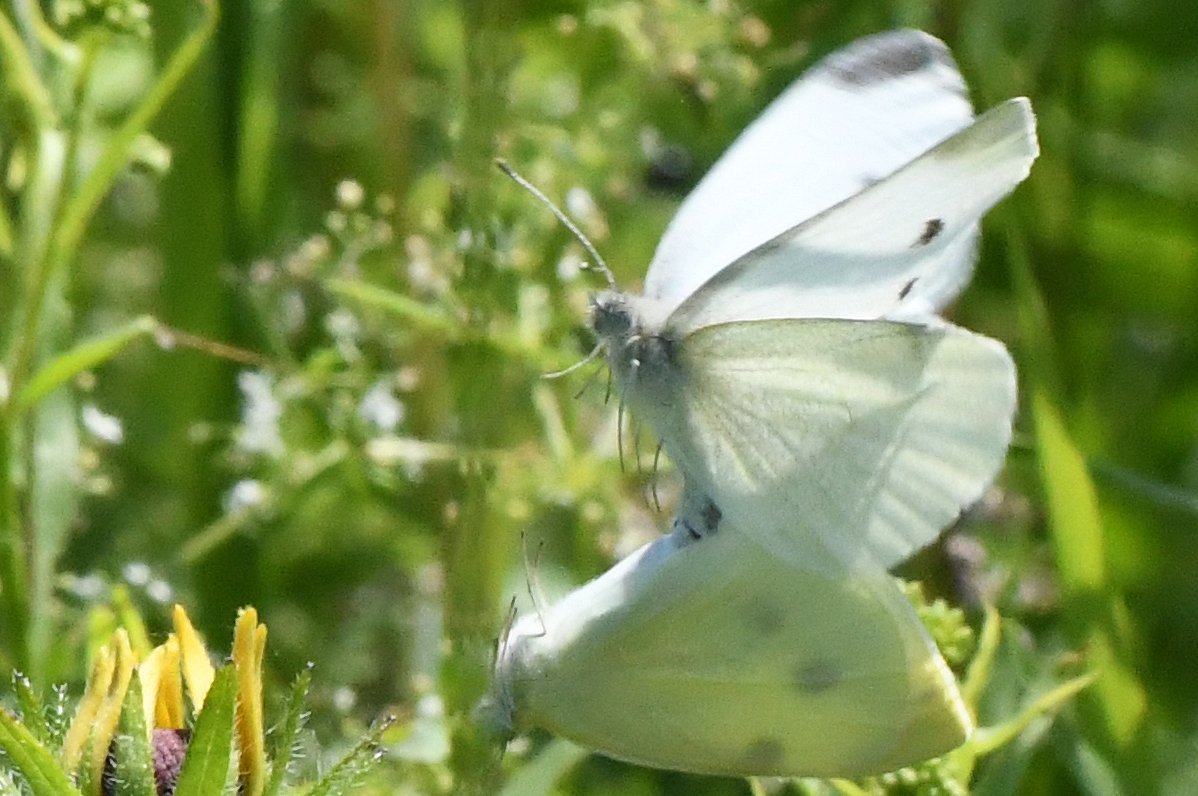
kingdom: Animalia
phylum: Arthropoda
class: Insecta
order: Lepidoptera
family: Pieridae
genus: Pieris
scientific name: Pieris rapae
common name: Cabbage White
